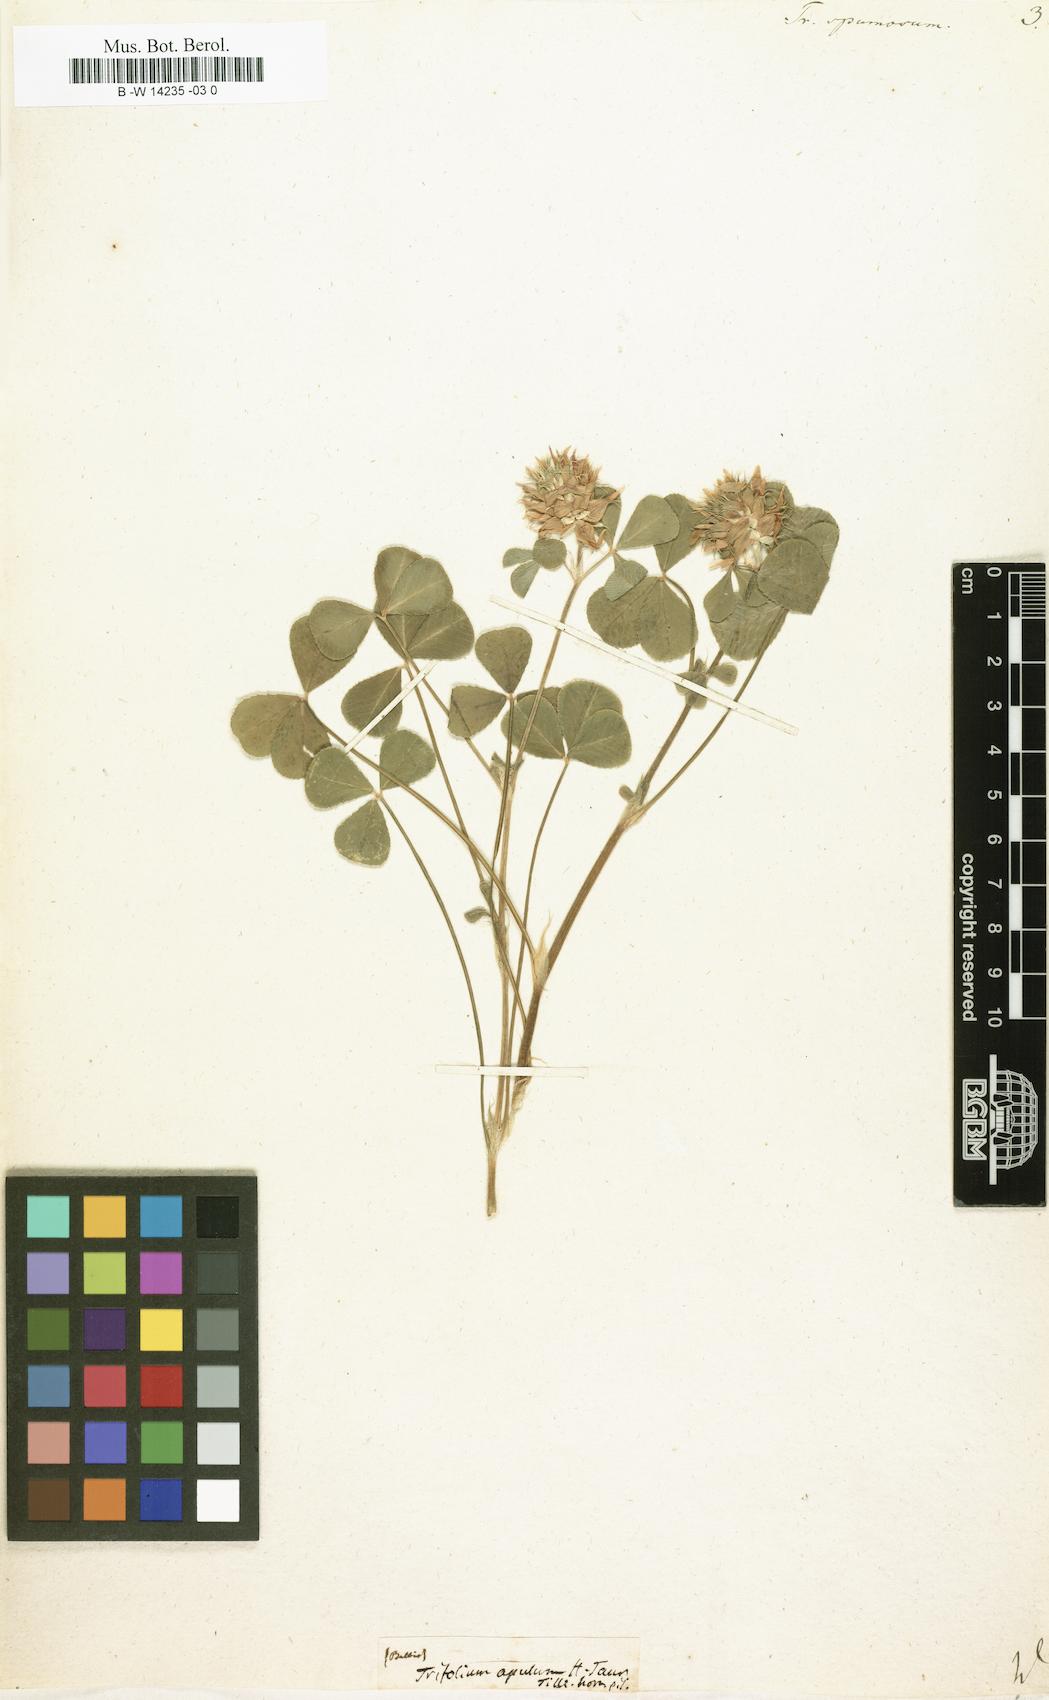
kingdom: Plantae
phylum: Tracheophyta
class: Magnoliopsida
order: Fabales
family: Fabaceae
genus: Trifolium
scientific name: Trifolium spumosum
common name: Mediterranean clover
